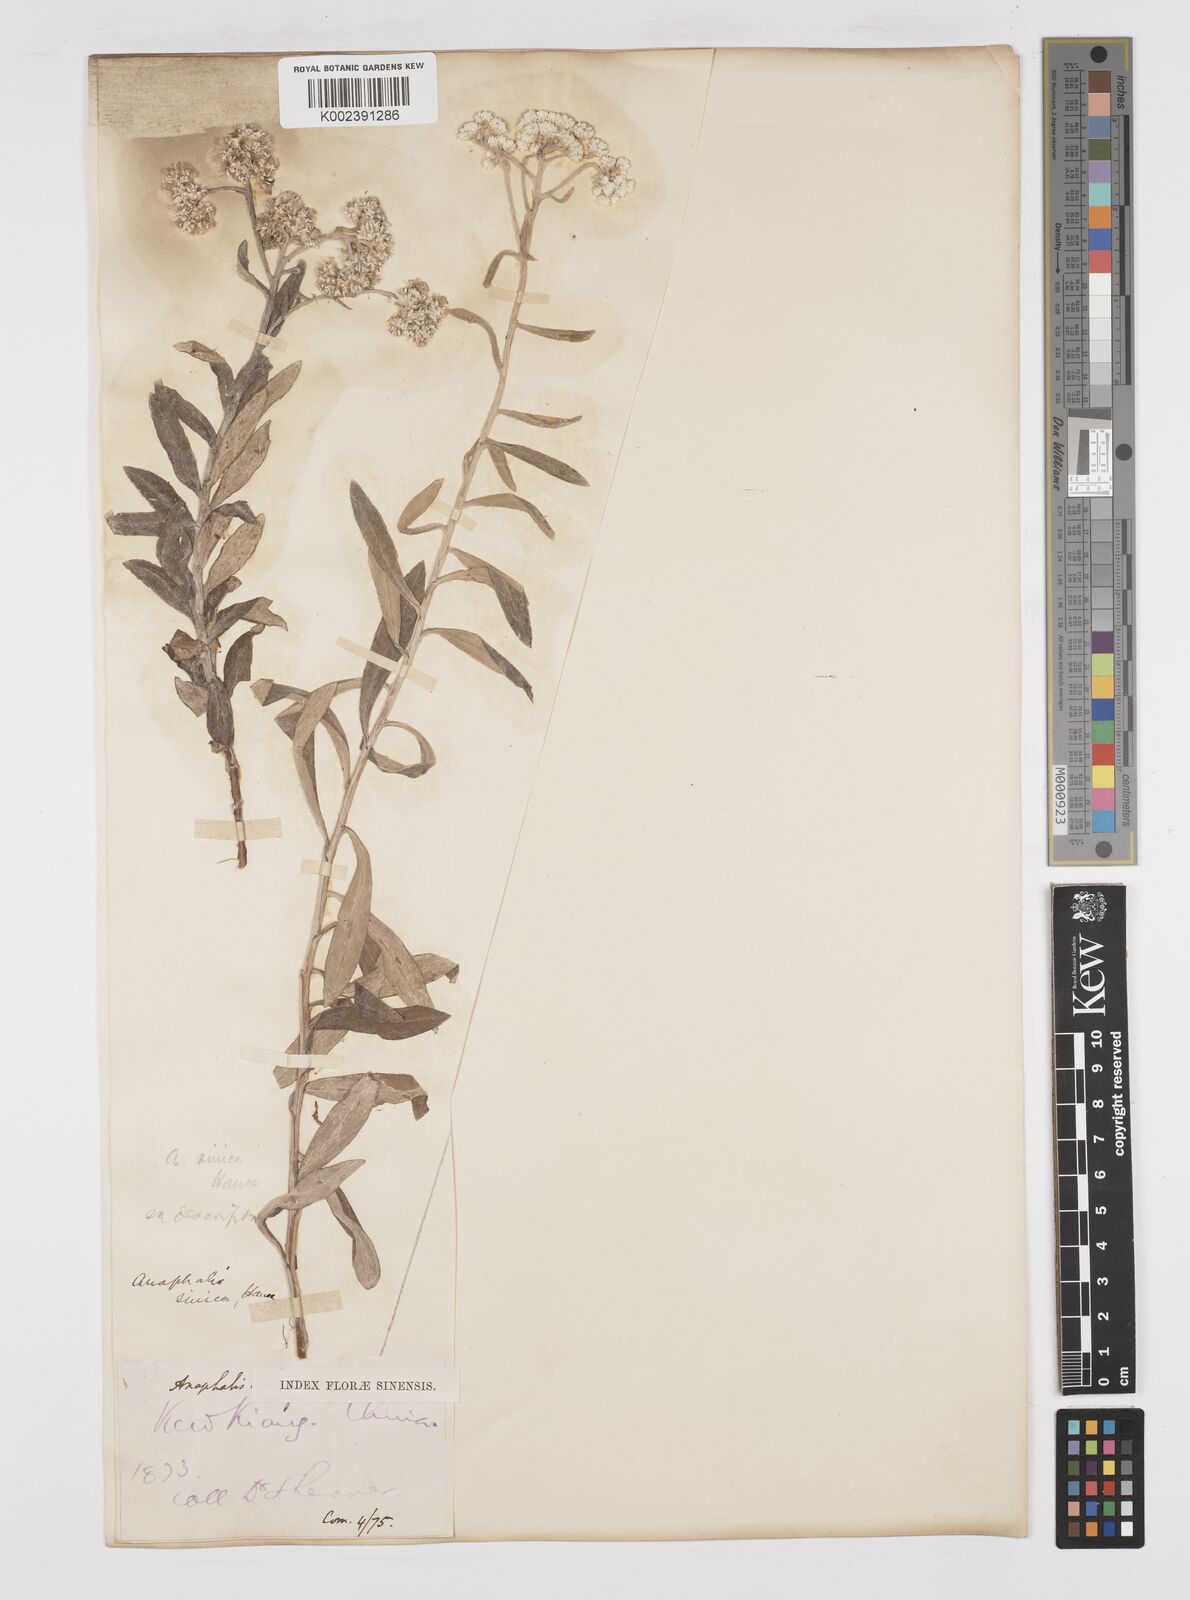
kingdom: Plantae
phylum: Tracheophyta
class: Magnoliopsida
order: Asterales
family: Asteraceae
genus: Anaphalis
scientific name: Anaphalis sinica
